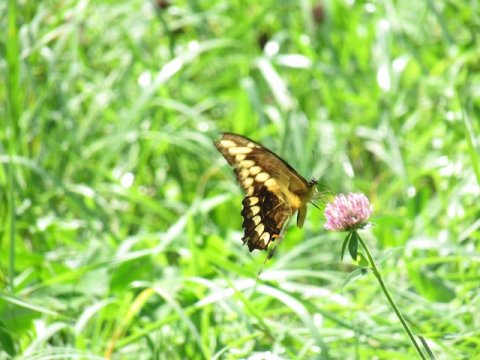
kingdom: Animalia
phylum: Arthropoda
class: Insecta
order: Lepidoptera
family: Papilionidae
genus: Papilio
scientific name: Papilio cresphontes
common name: Eastern Giant Swallowtail
